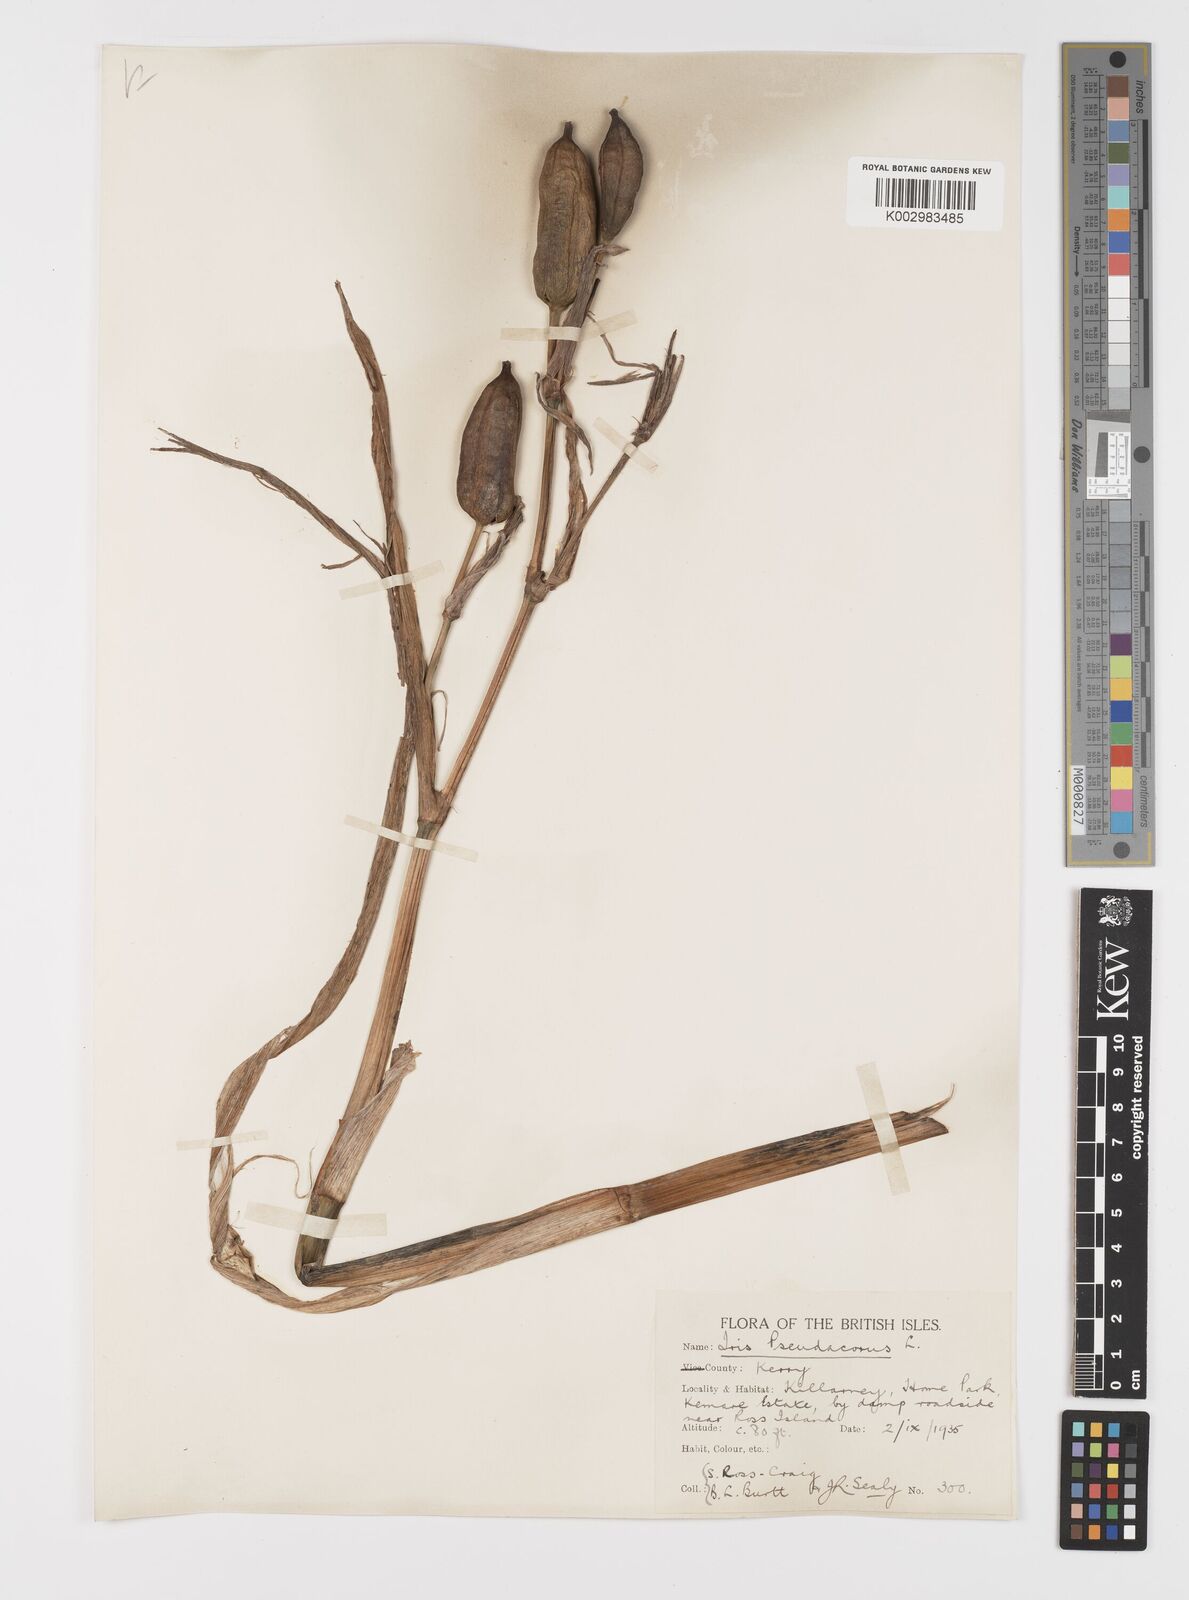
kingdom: Plantae
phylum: Tracheophyta
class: Liliopsida
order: Asparagales
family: Iridaceae
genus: Iris
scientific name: Iris pseudacorus
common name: Yellow flag
